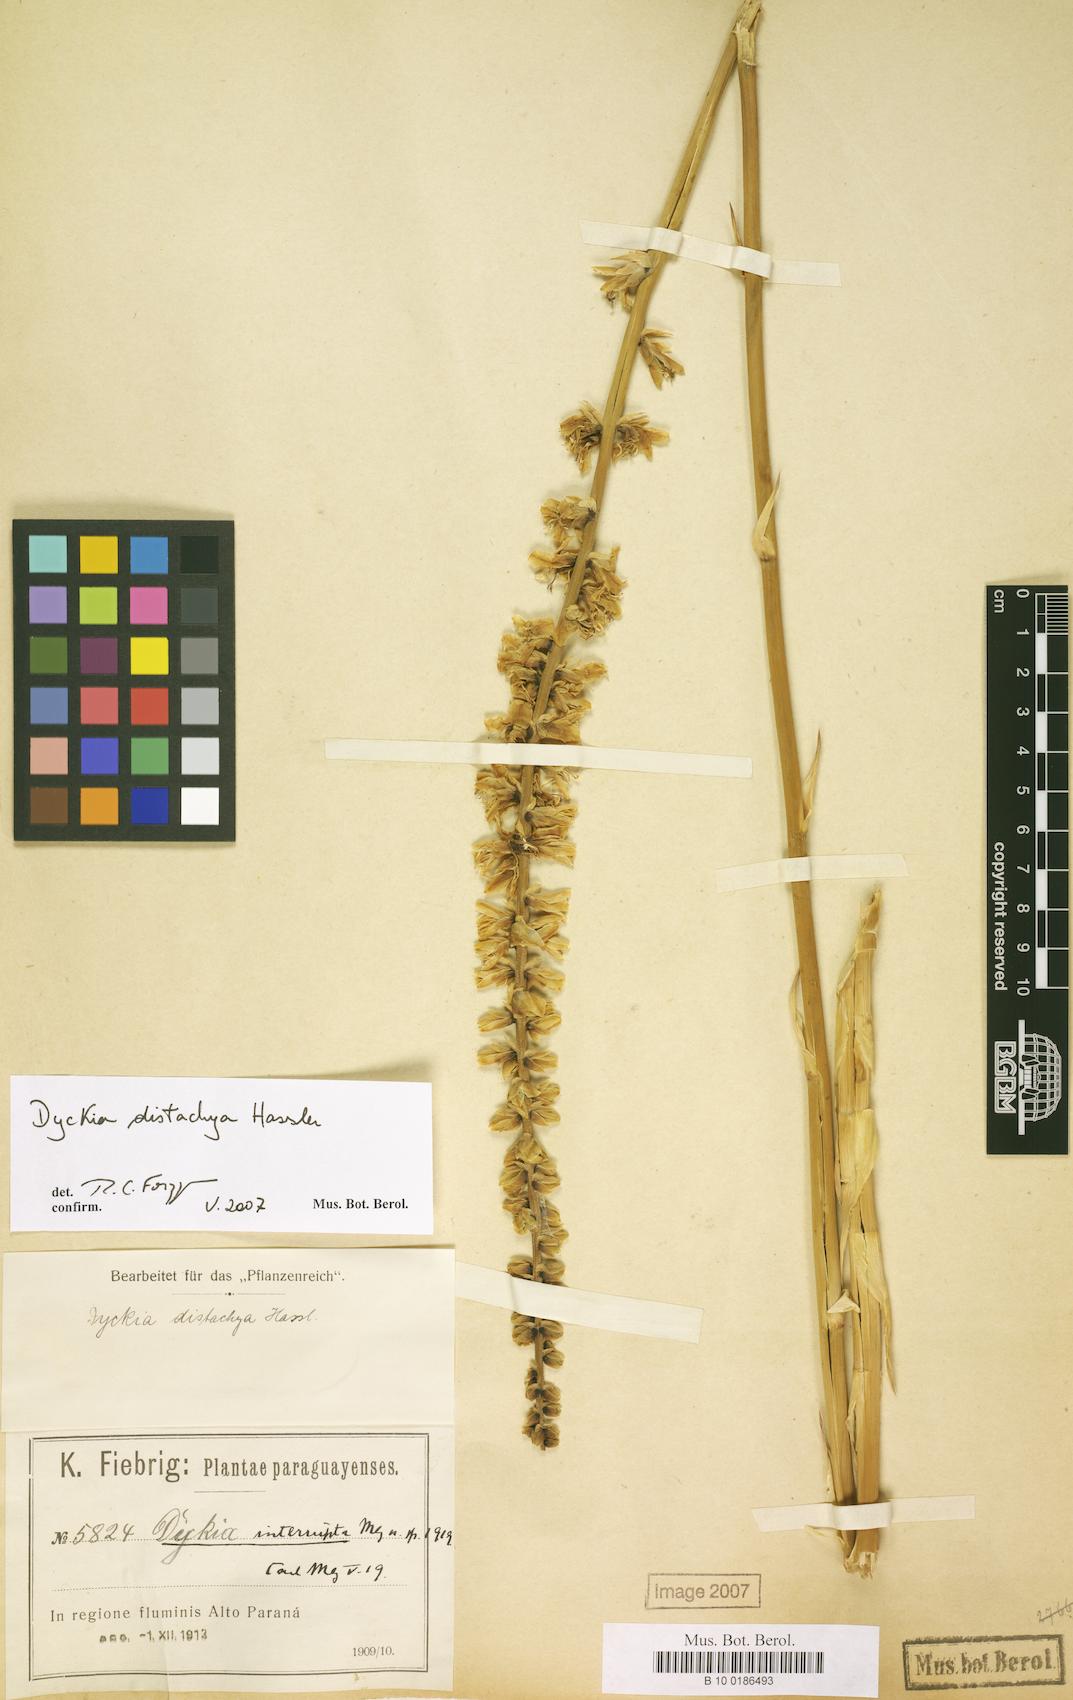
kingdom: Plantae
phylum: Tracheophyta
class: Liliopsida
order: Poales
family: Bromeliaceae
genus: Dyckia
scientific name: Dyckia distachya
